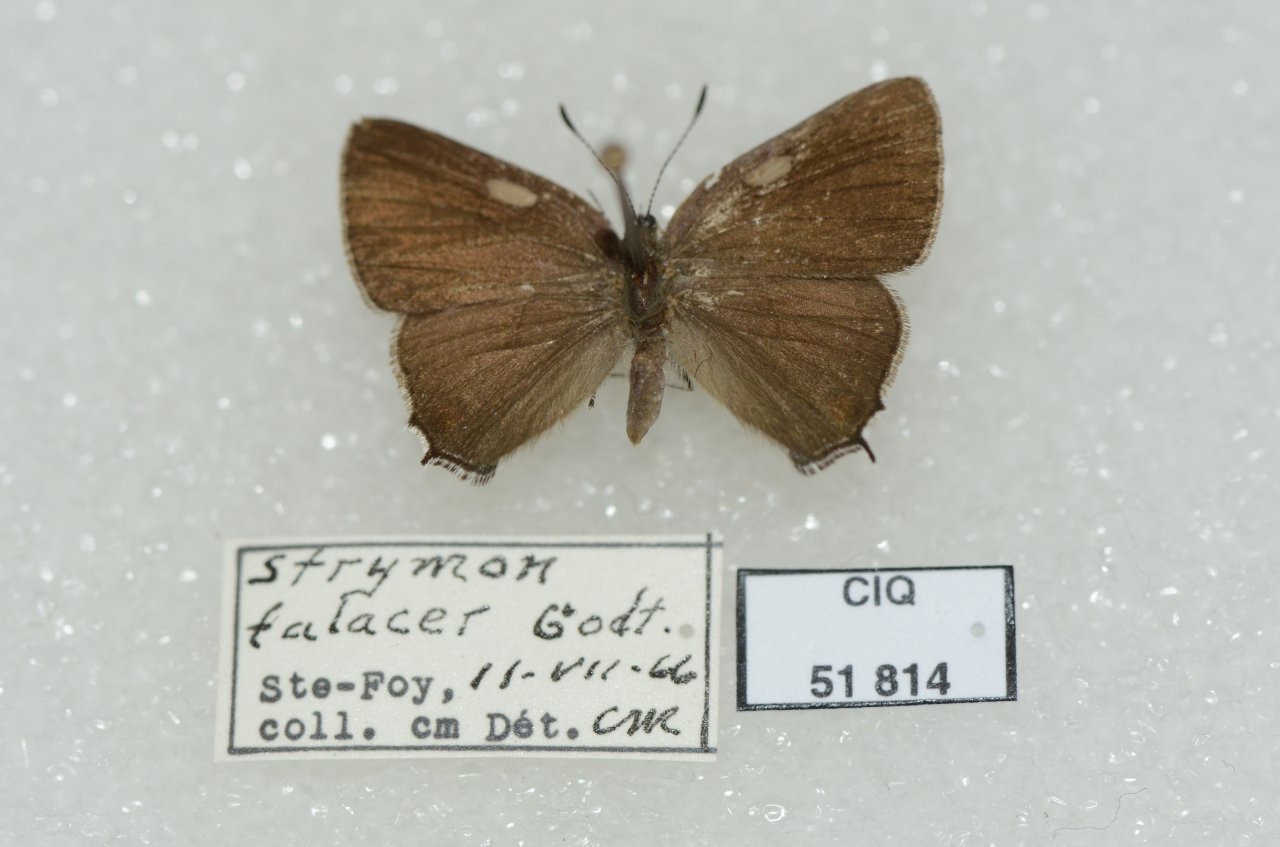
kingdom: Animalia
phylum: Arthropoda
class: Insecta
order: Lepidoptera
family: Lycaenidae
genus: Satyrium
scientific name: Satyrium calanus
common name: Banded Hairstreak
